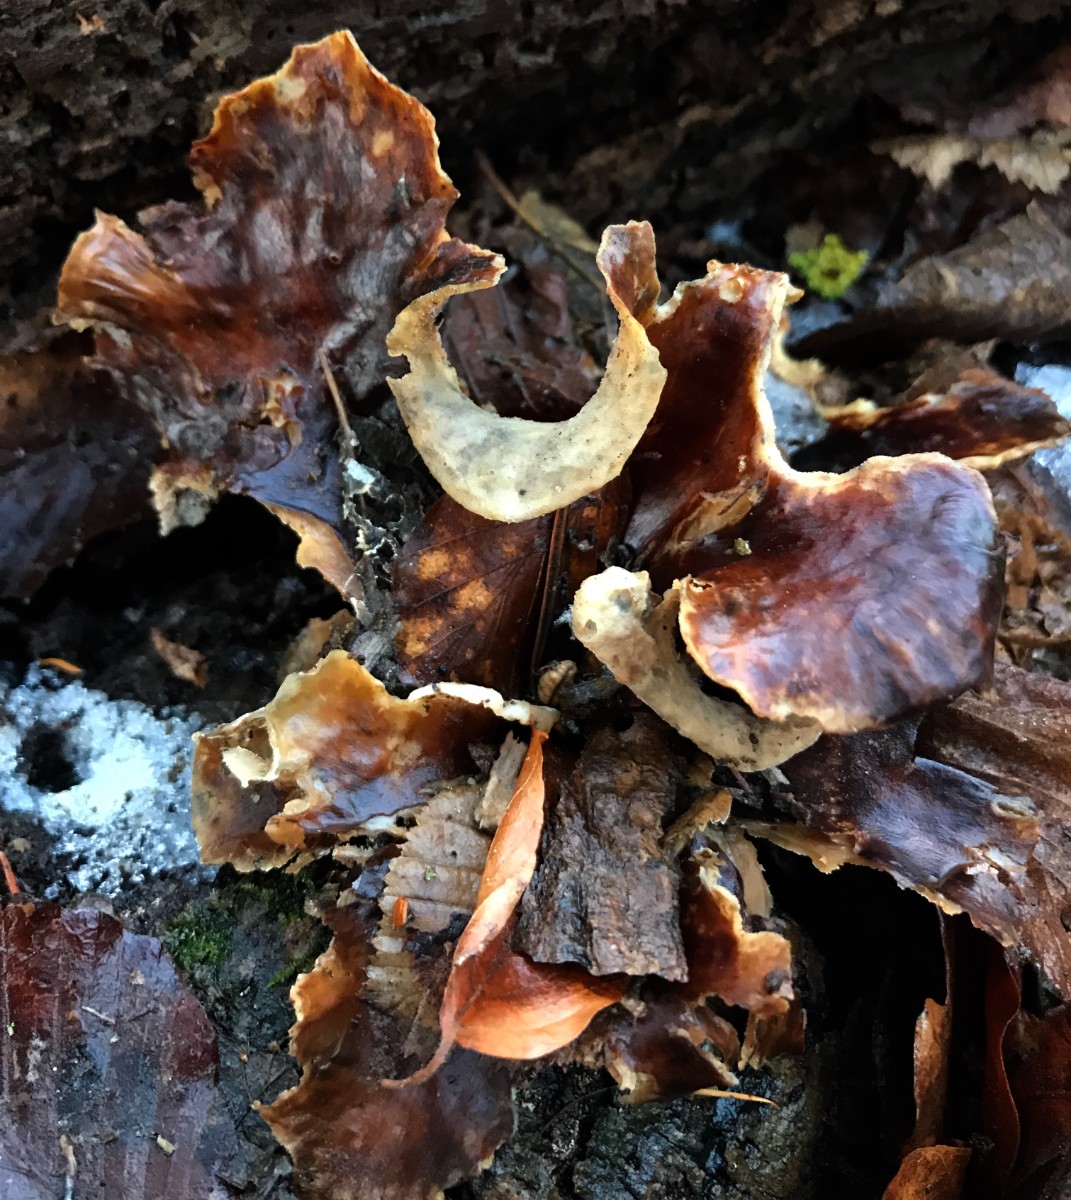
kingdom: Fungi
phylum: Basidiomycota
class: Agaricomycetes
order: Polyporales
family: Polyporaceae
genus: Picipes
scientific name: Picipes badius
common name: kastaniebrun stilkporesvamp
